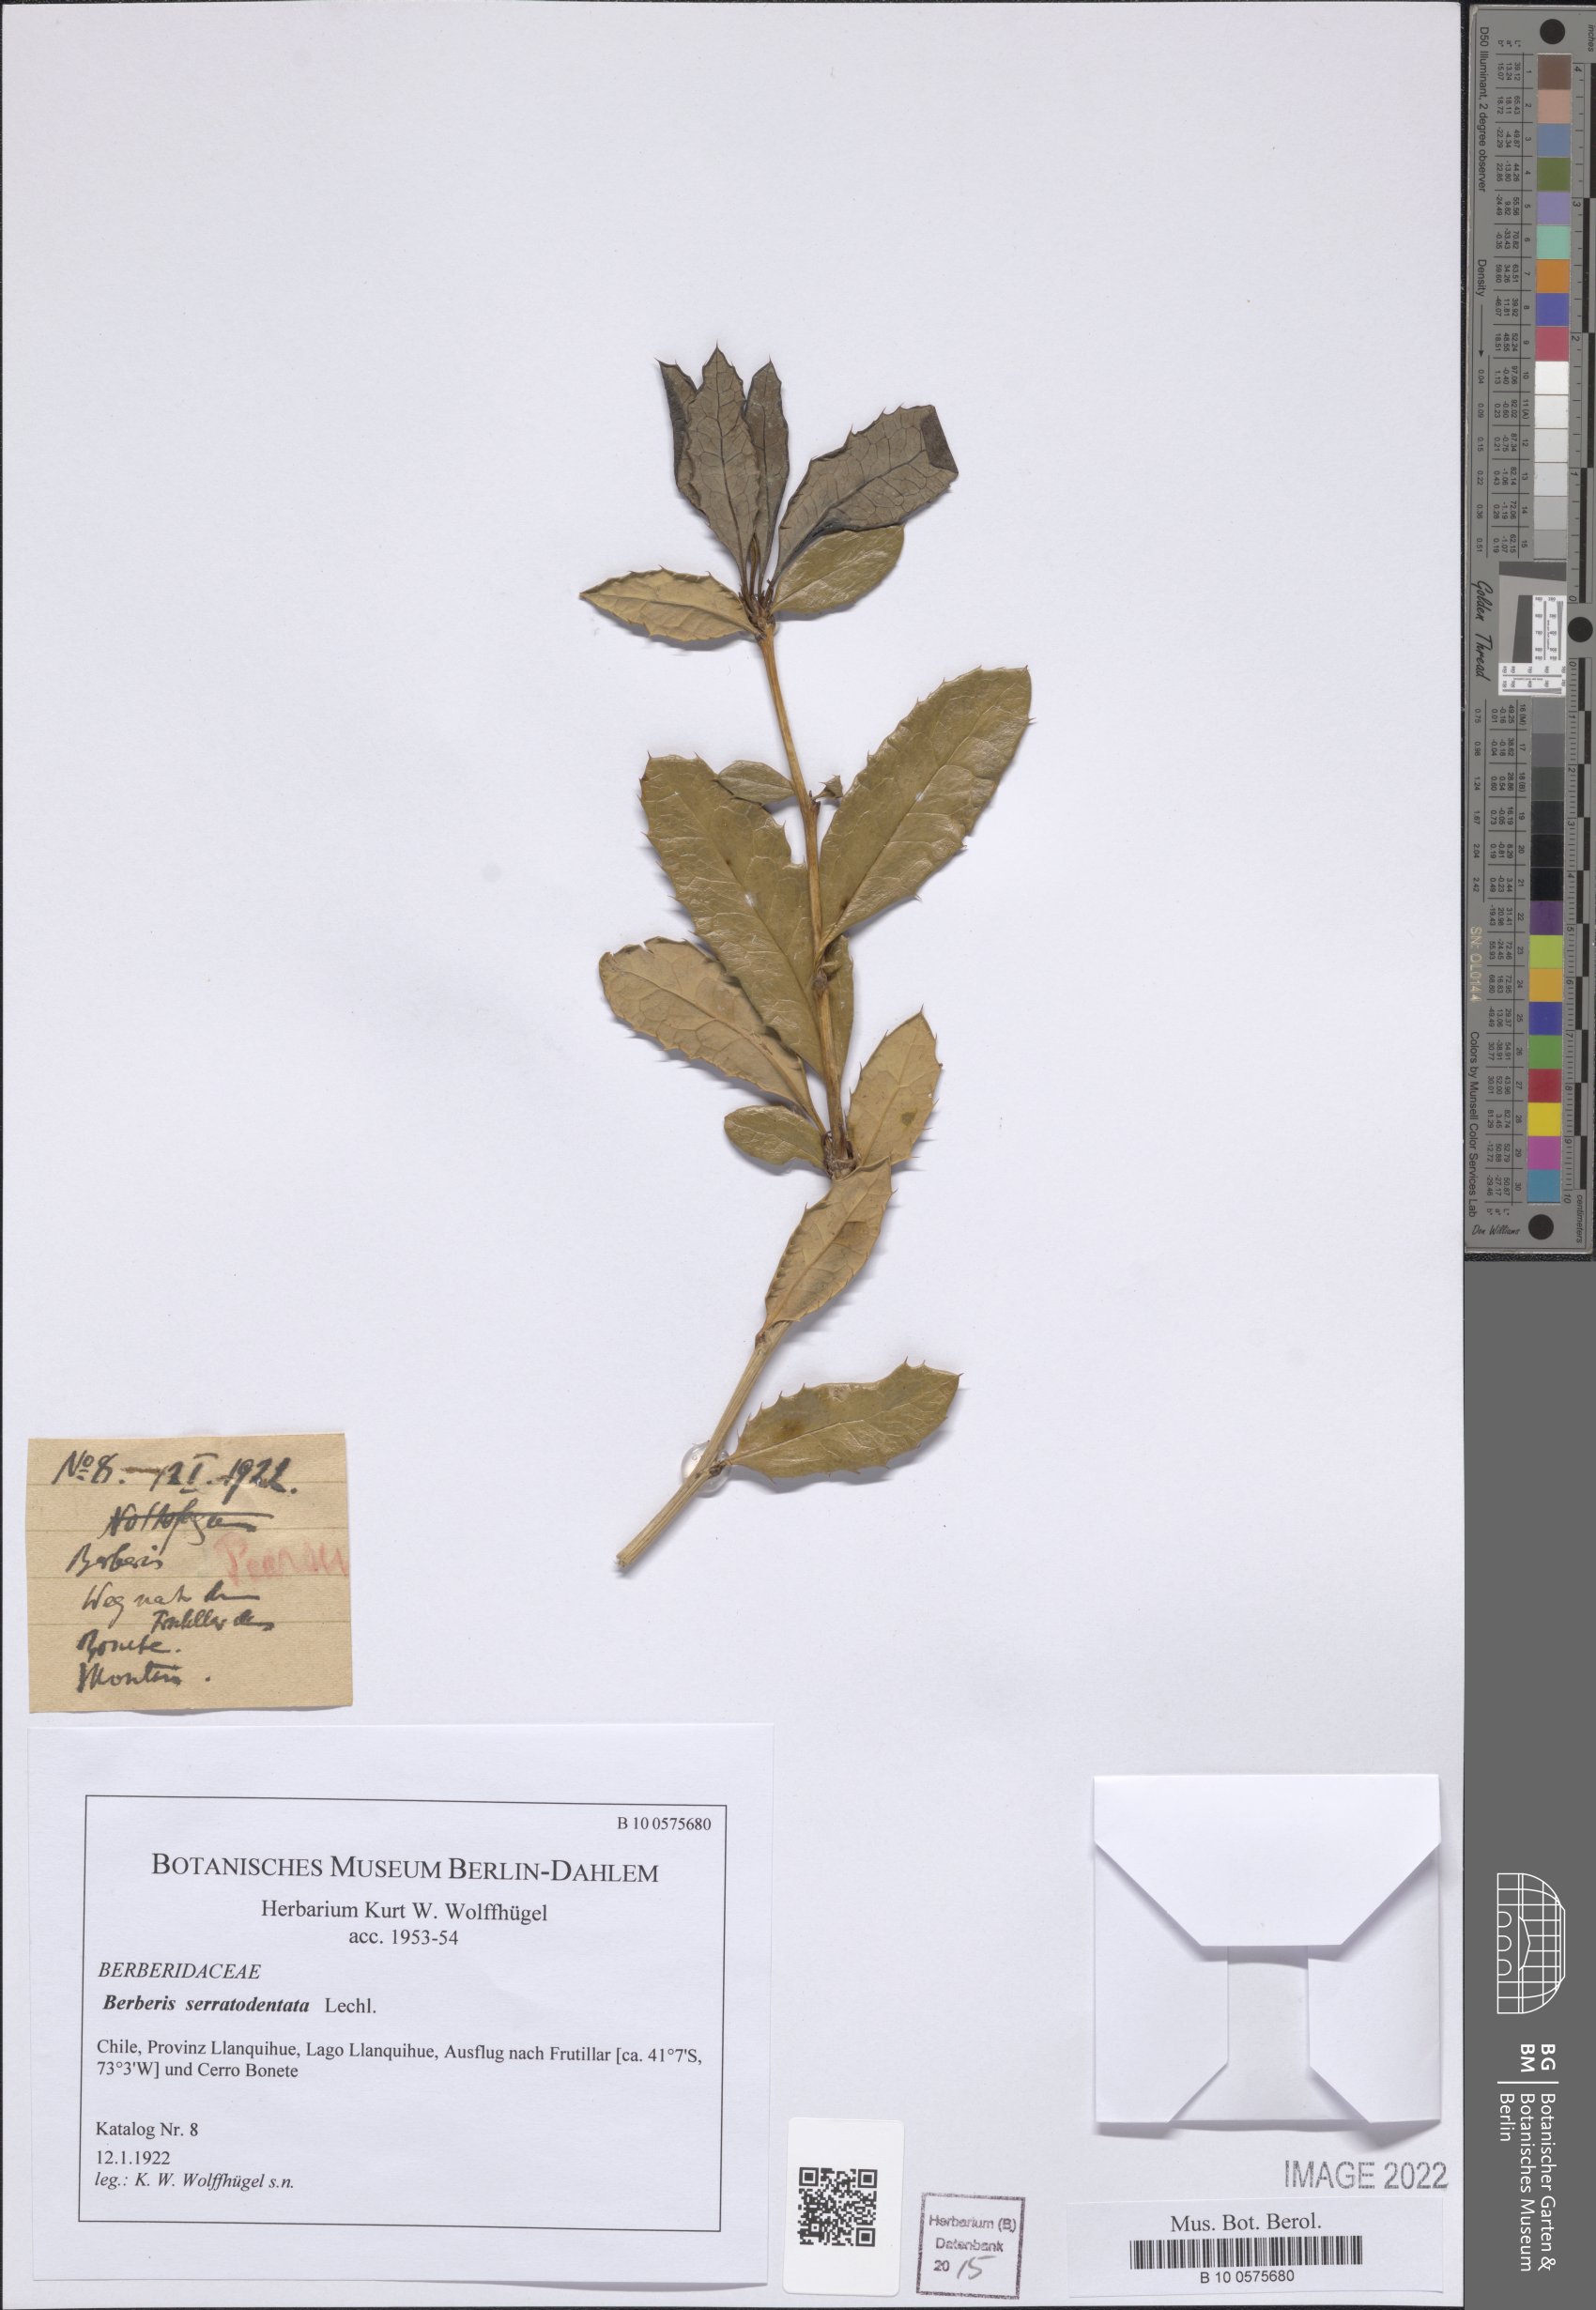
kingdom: Plantae
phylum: Tracheophyta
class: Magnoliopsida
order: Ranunculales
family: Berberidaceae
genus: Berberis
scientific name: Berberis serratodentata
